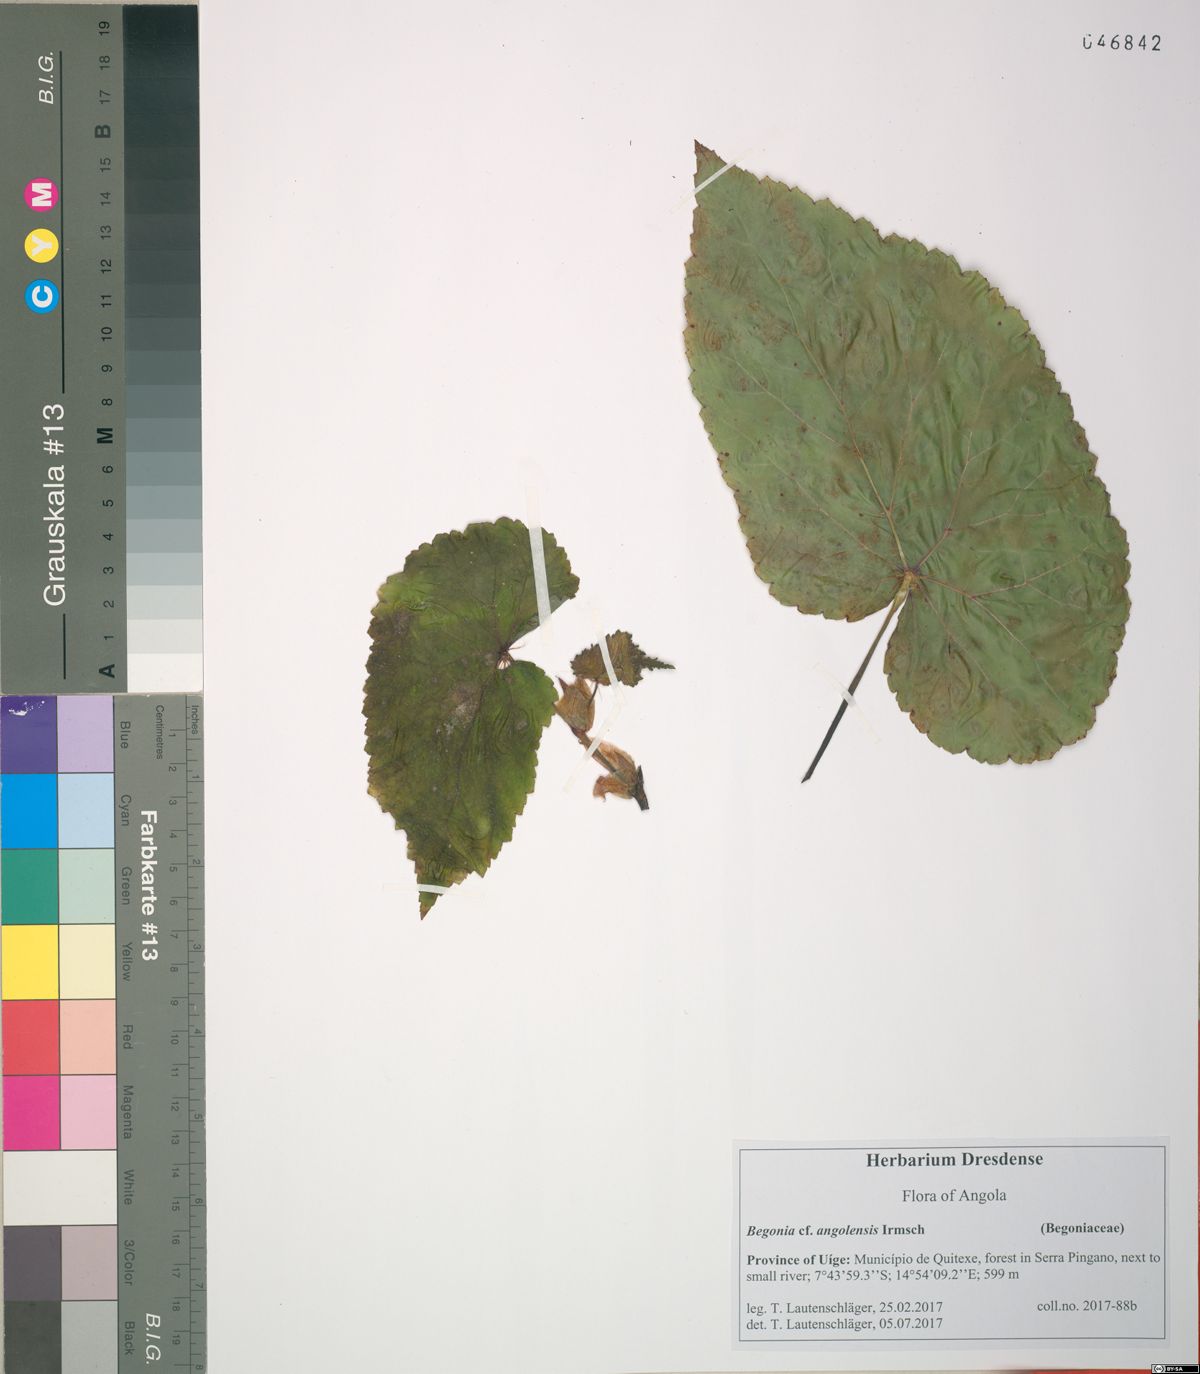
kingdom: Plantae
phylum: Tracheophyta
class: Magnoliopsida
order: Cucurbitales
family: Begoniaceae
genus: Begonia
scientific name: Begonia johnstoni
